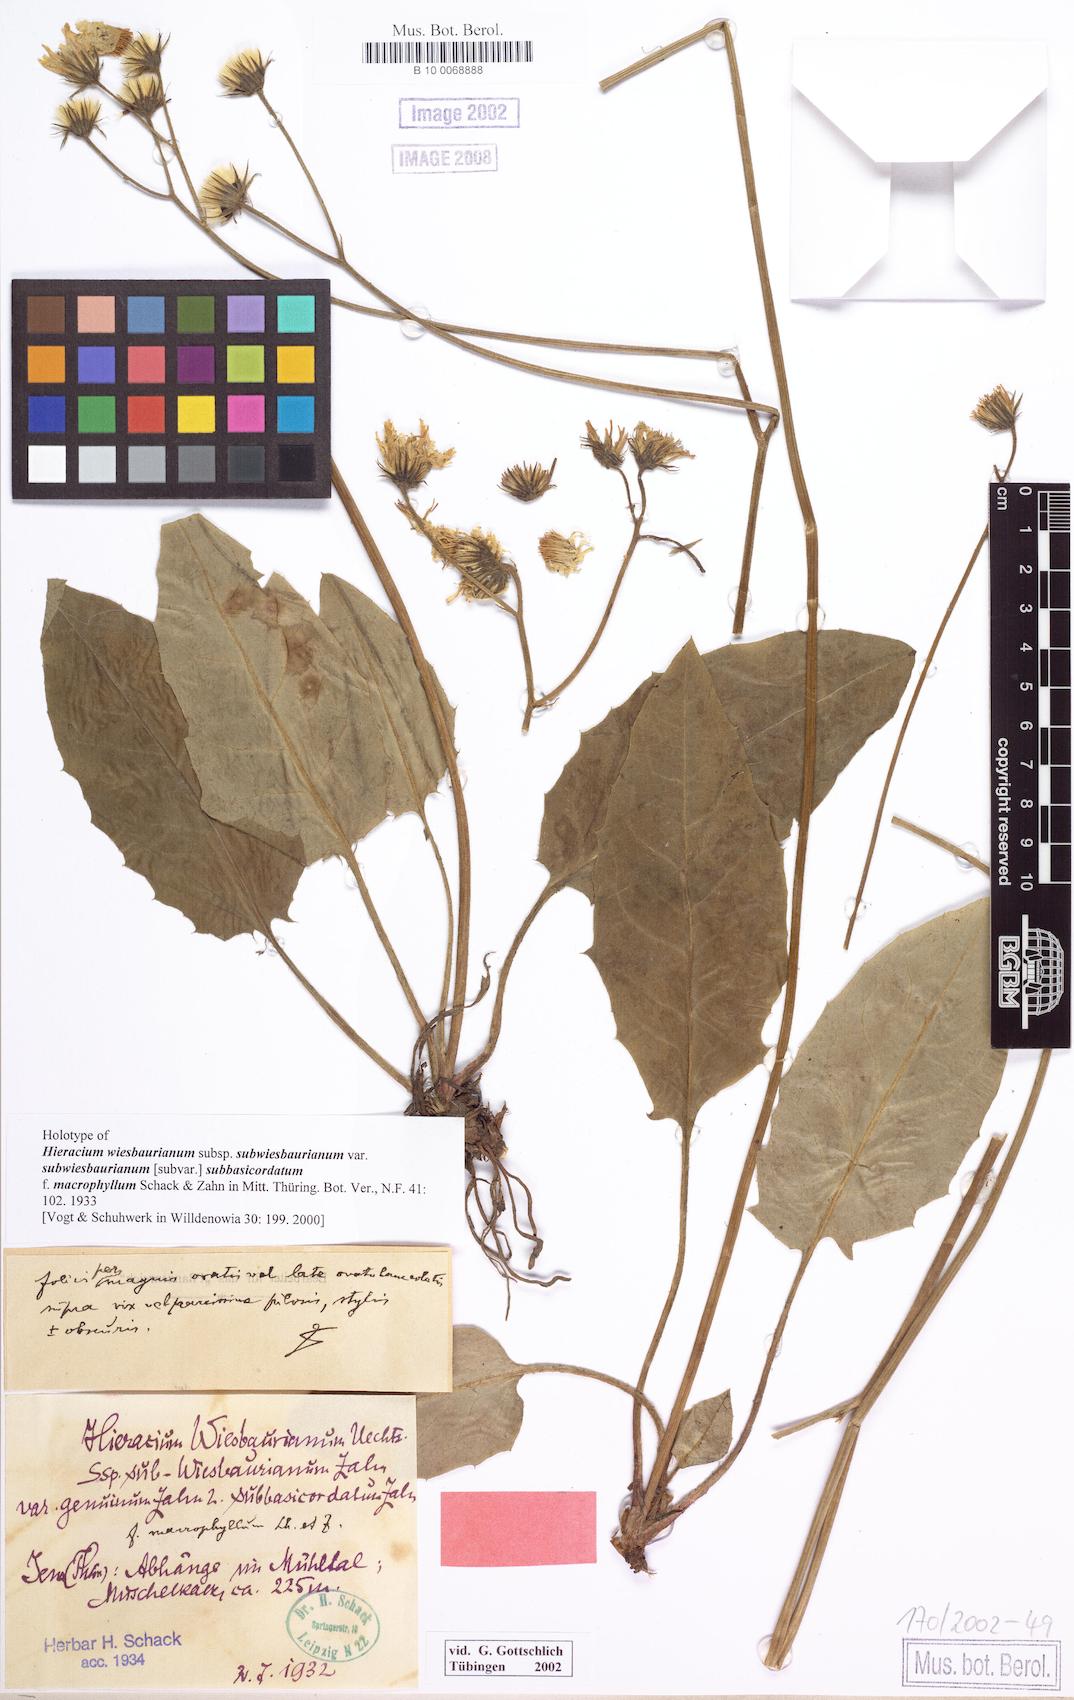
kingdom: Plantae
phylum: Tracheophyta
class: Magnoliopsida
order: Asterales
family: Asteraceae
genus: Hieracium
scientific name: Hieracium hypochoeroides
